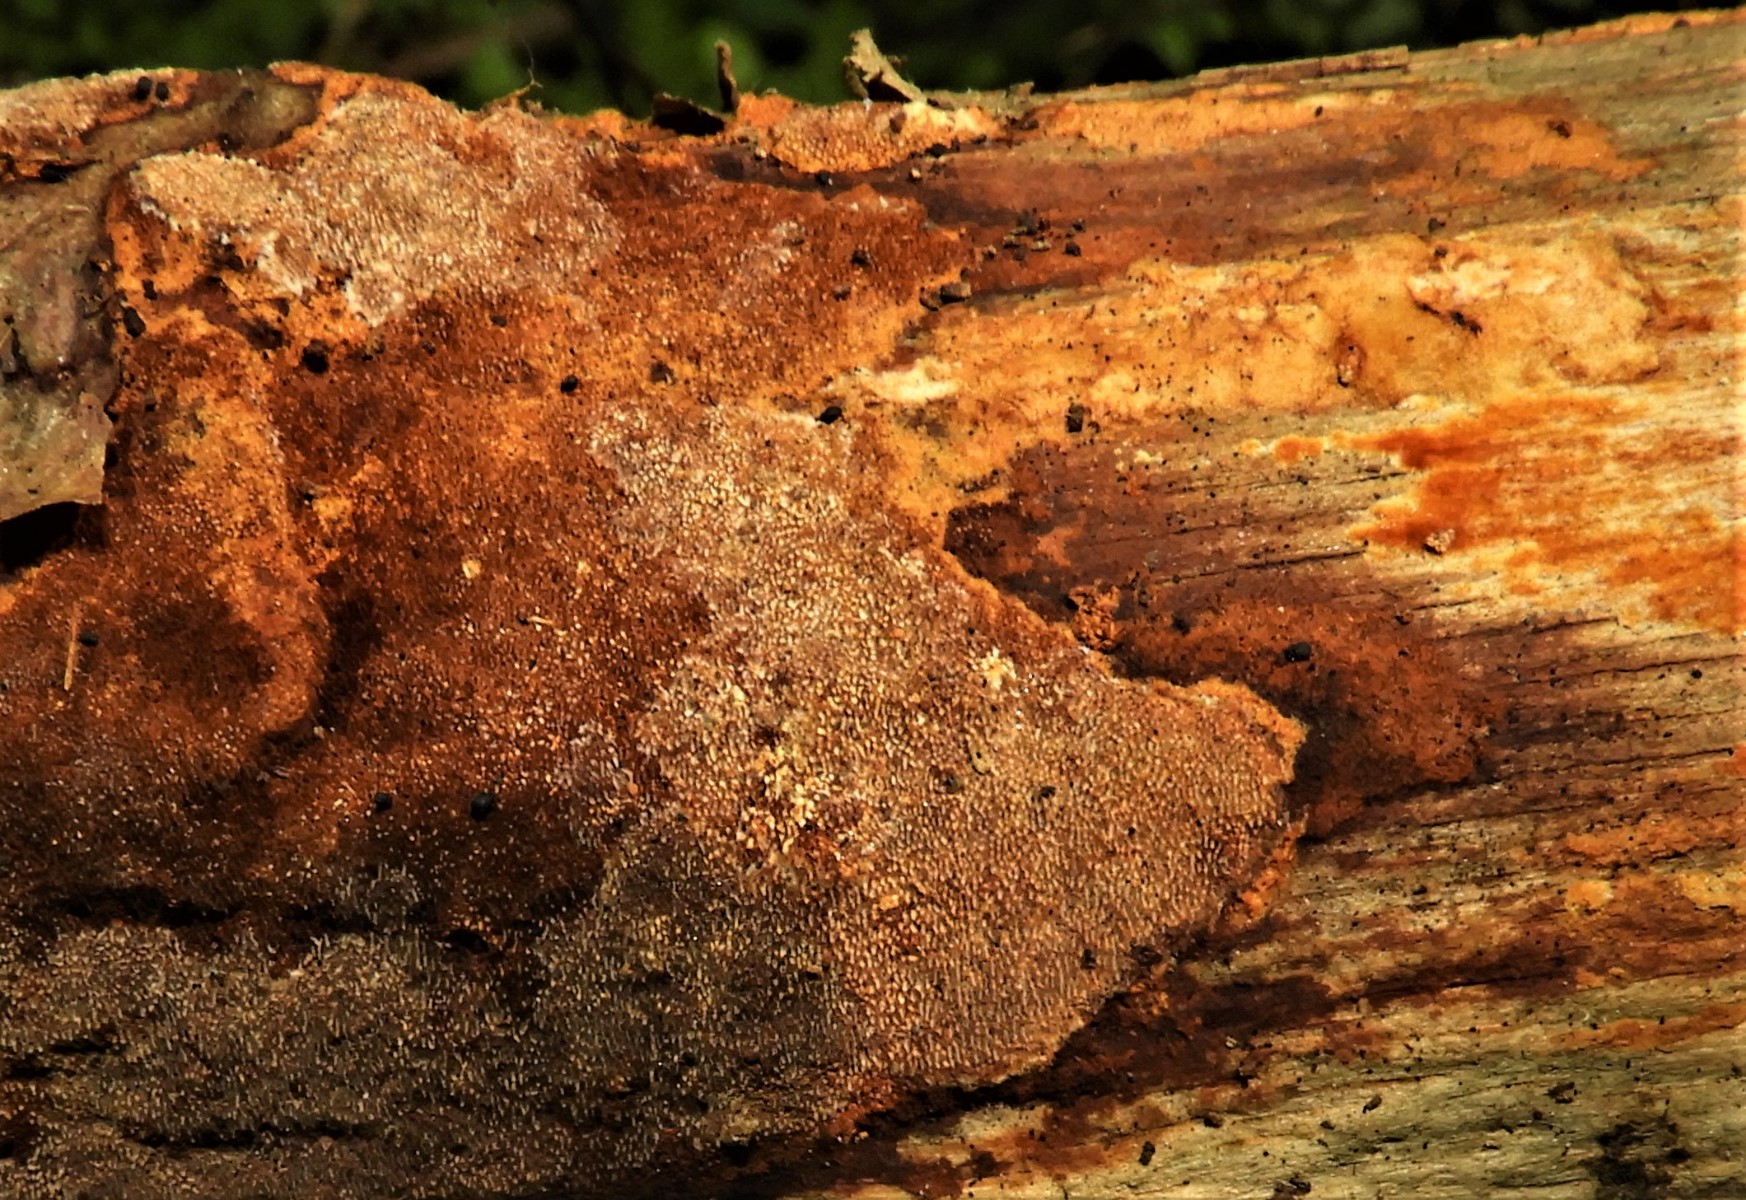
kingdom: Fungi
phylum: Basidiomycota
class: Agaricomycetes
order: Hymenochaetales
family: Hymenochaetaceae
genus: Fuscoporia
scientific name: Fuscoporia ferrea
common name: skorpe-ildporesvamp
